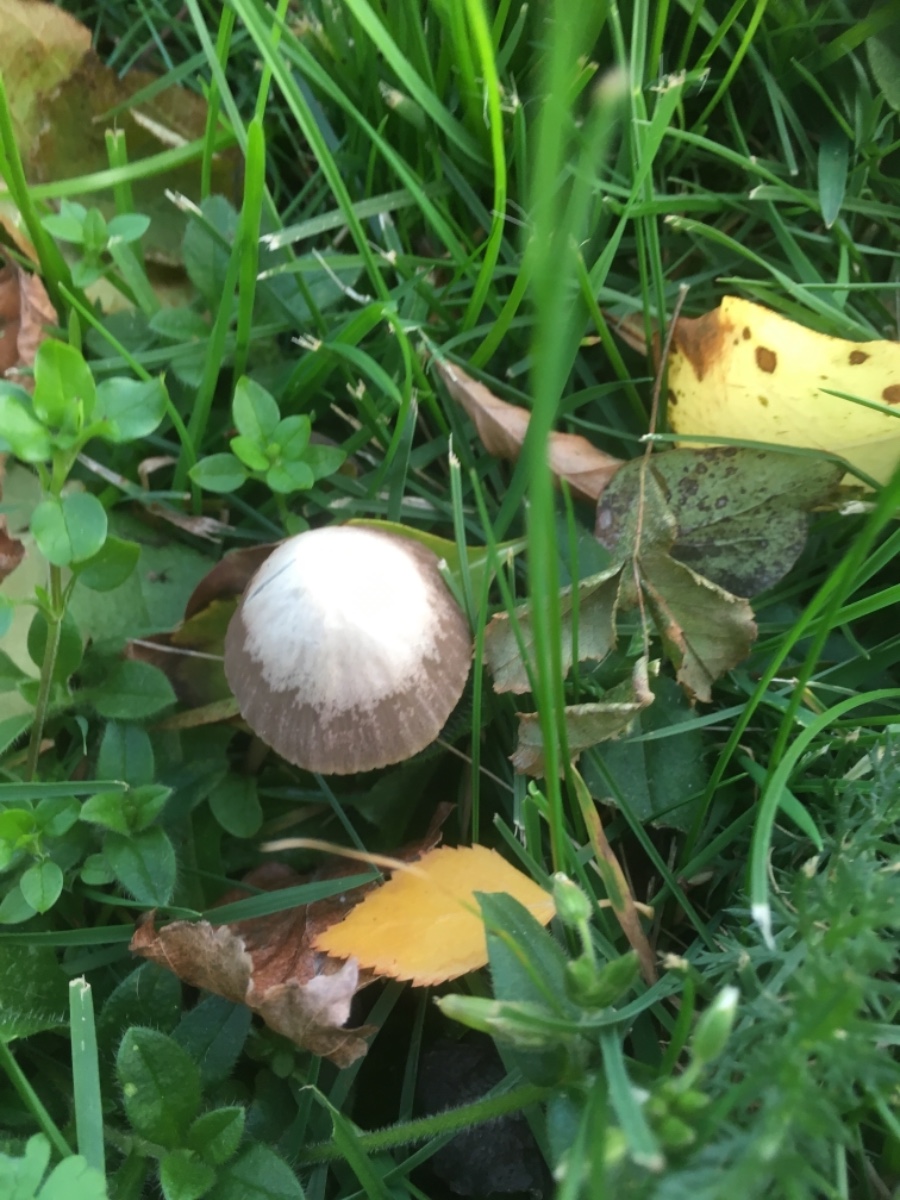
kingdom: Fungi
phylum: Basidiomycota
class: Agaricomycetes
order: Agaricales
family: Psathyrellaceae
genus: Psathyrella
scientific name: Psathyrella
